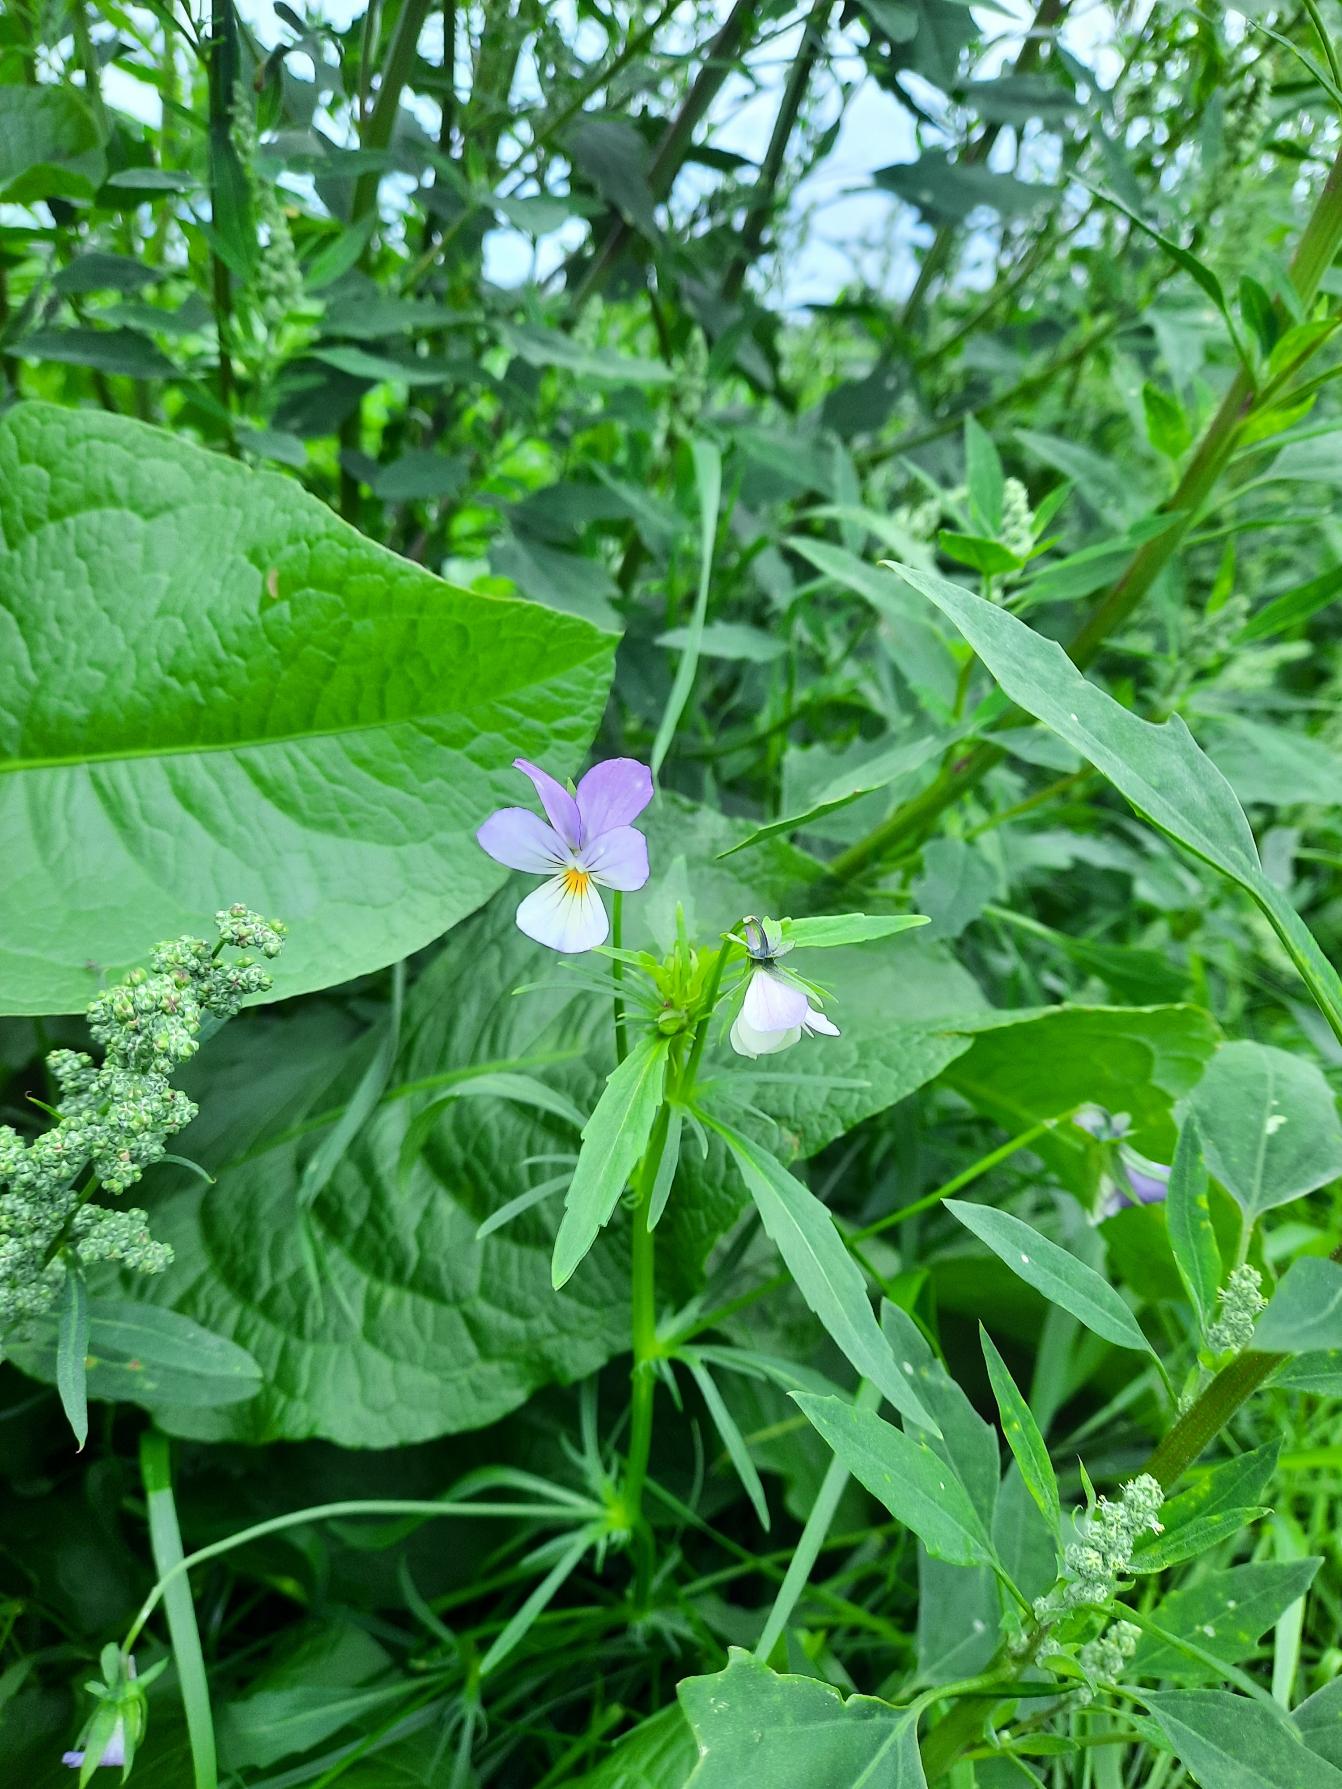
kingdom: Plantae
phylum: Tracheophyta
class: Magnoliopsida
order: Malpighiales
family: Violaceae
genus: Viola
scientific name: Viola tricolor
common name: Stedmoderblomst
